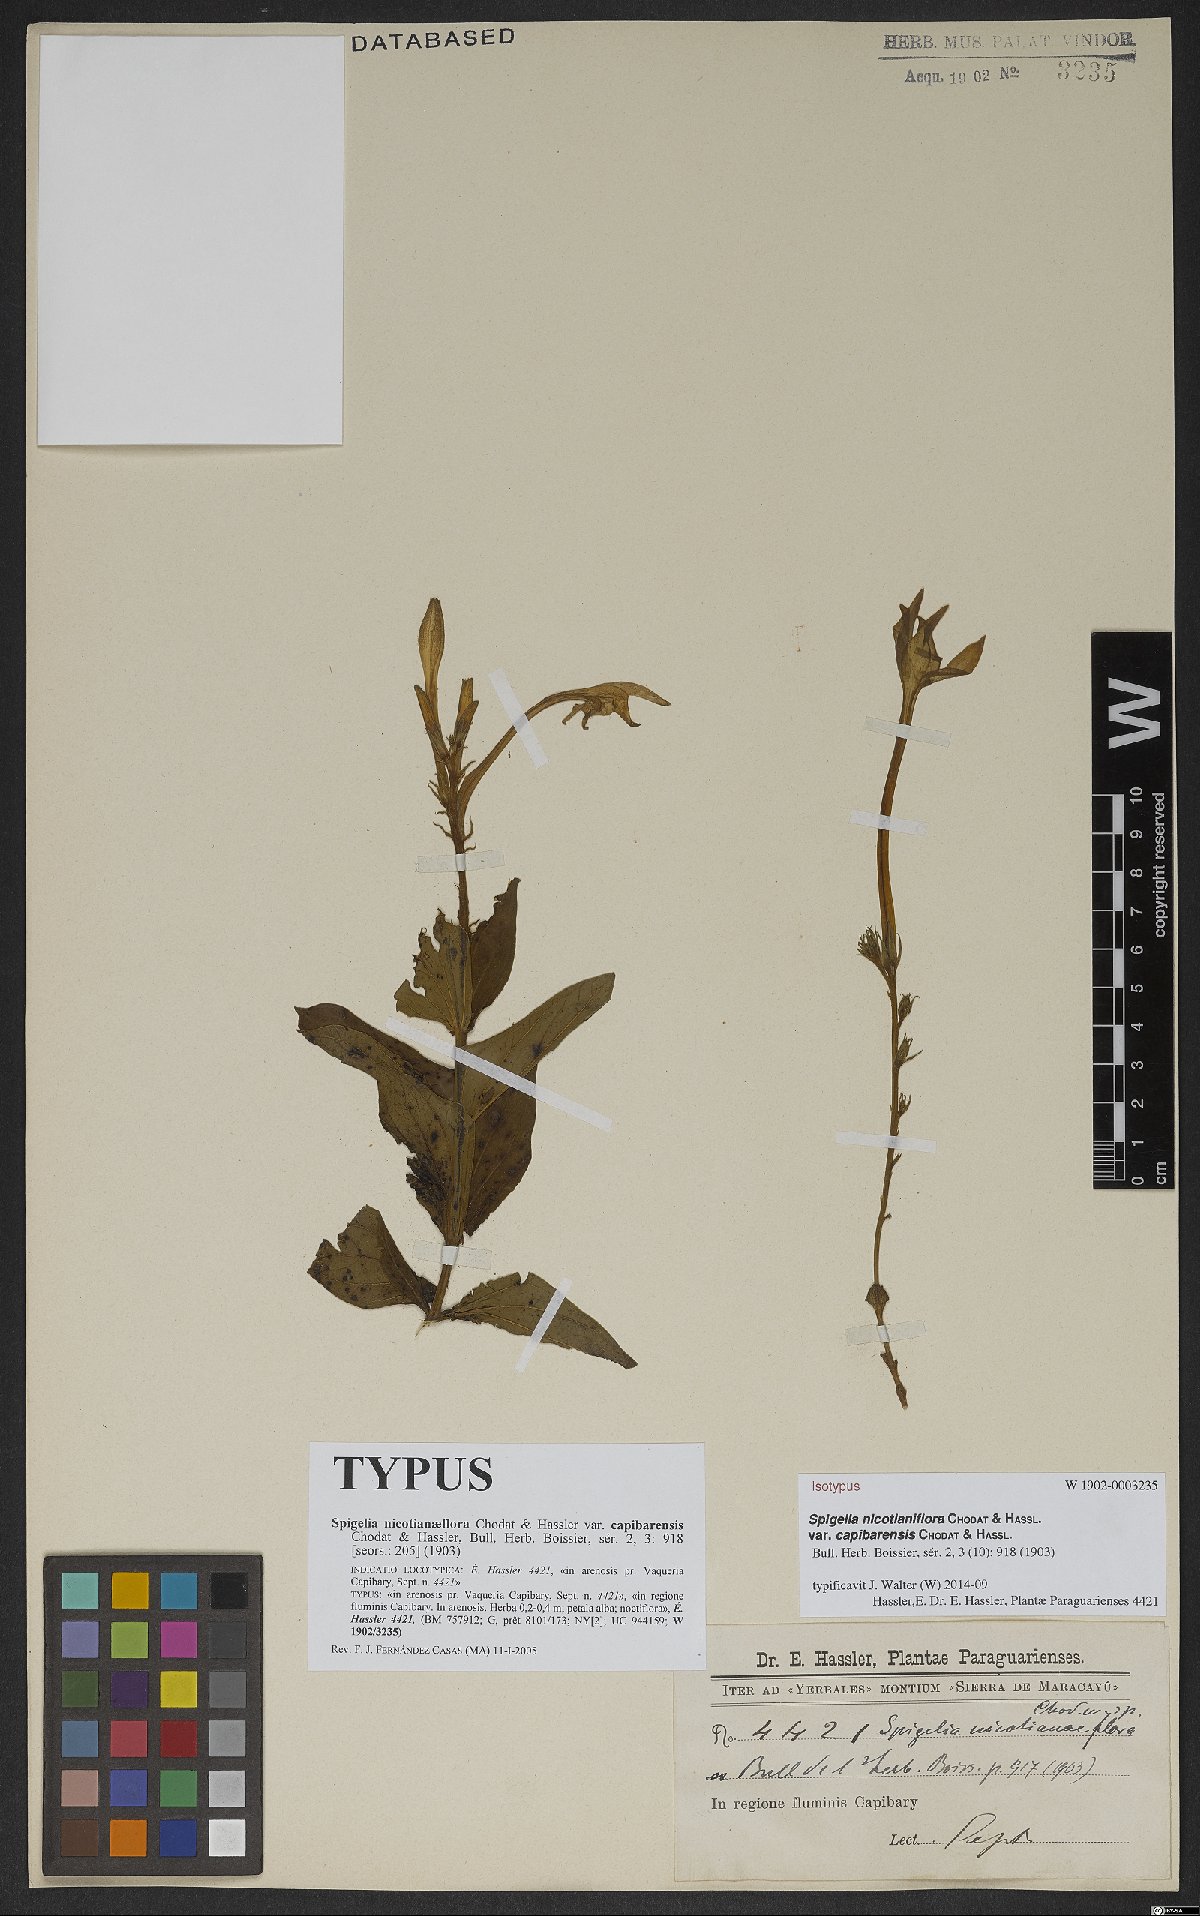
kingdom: Plantae
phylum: Tracheophyta
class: Magnoliopsida
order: Gentianales
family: Loganiaceae
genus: Spigelia
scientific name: Spigelia nicotianiflora
